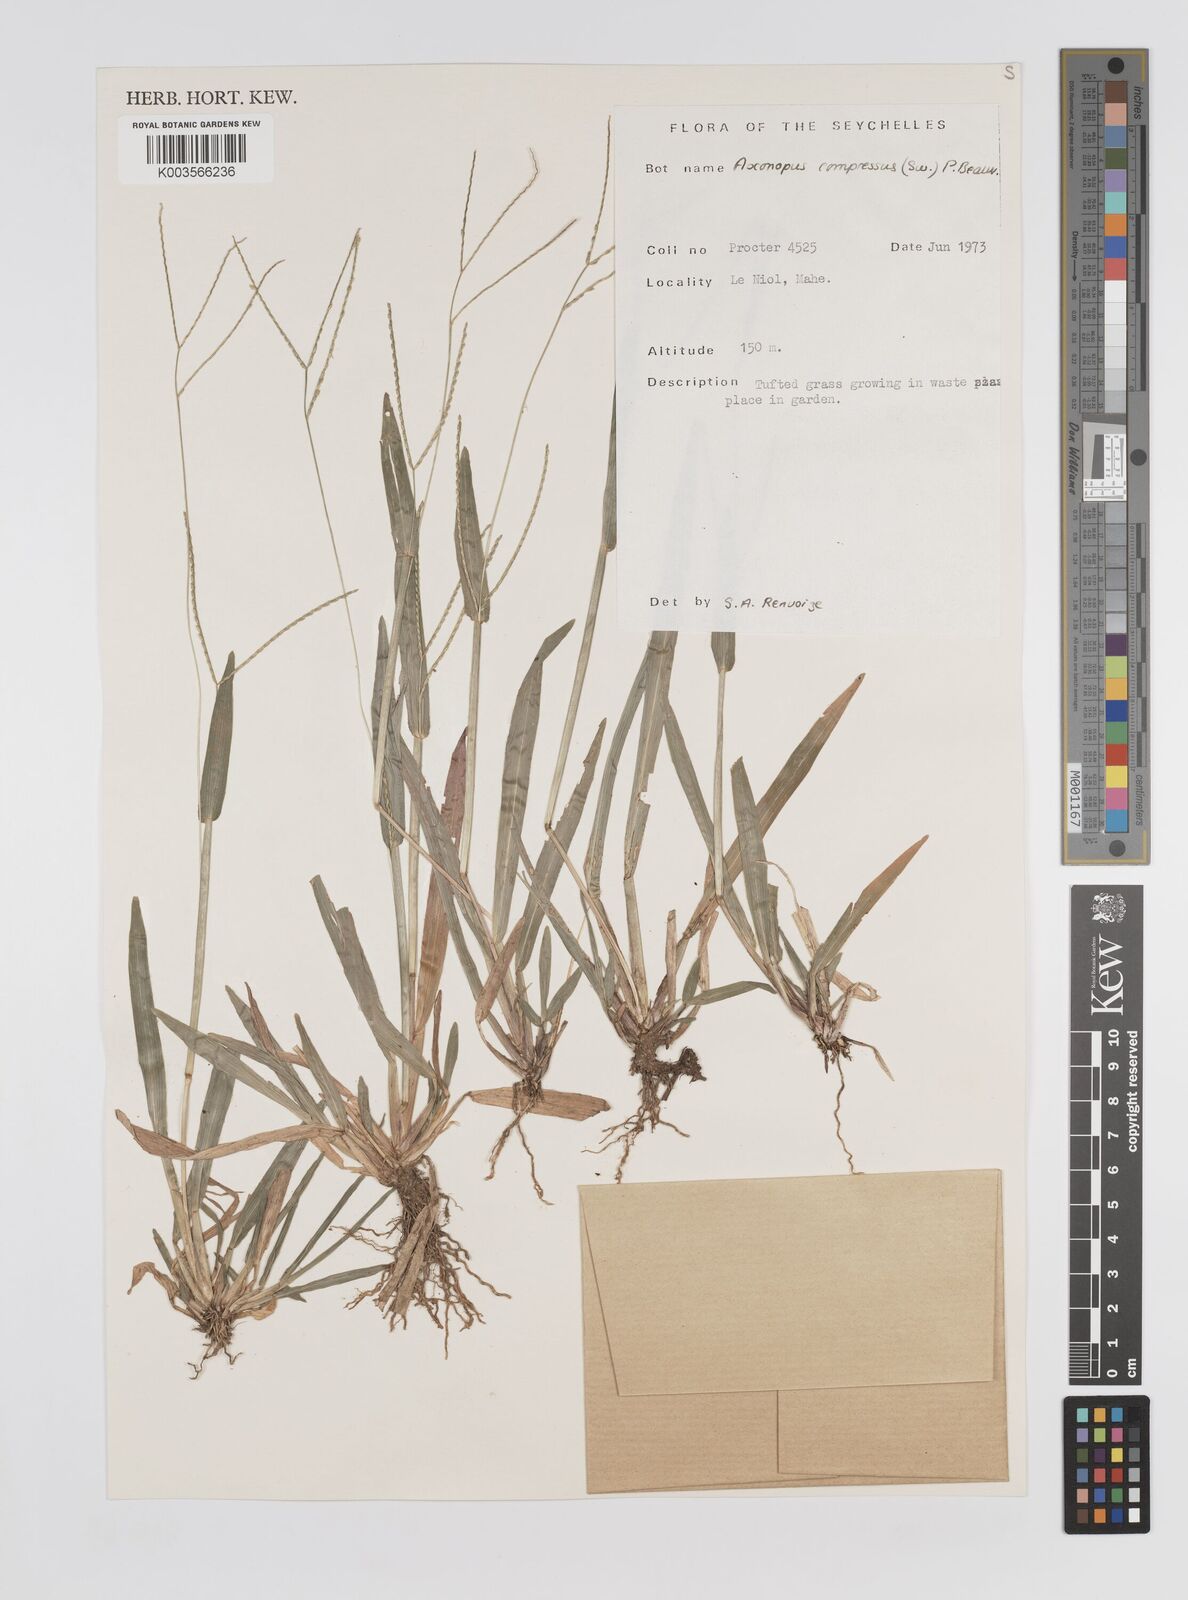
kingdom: Plantae
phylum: Tracheophyta
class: Liliopsida
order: Poales
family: Poaceae
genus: Axonopus
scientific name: Axonopus compressus
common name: American carpet grass
